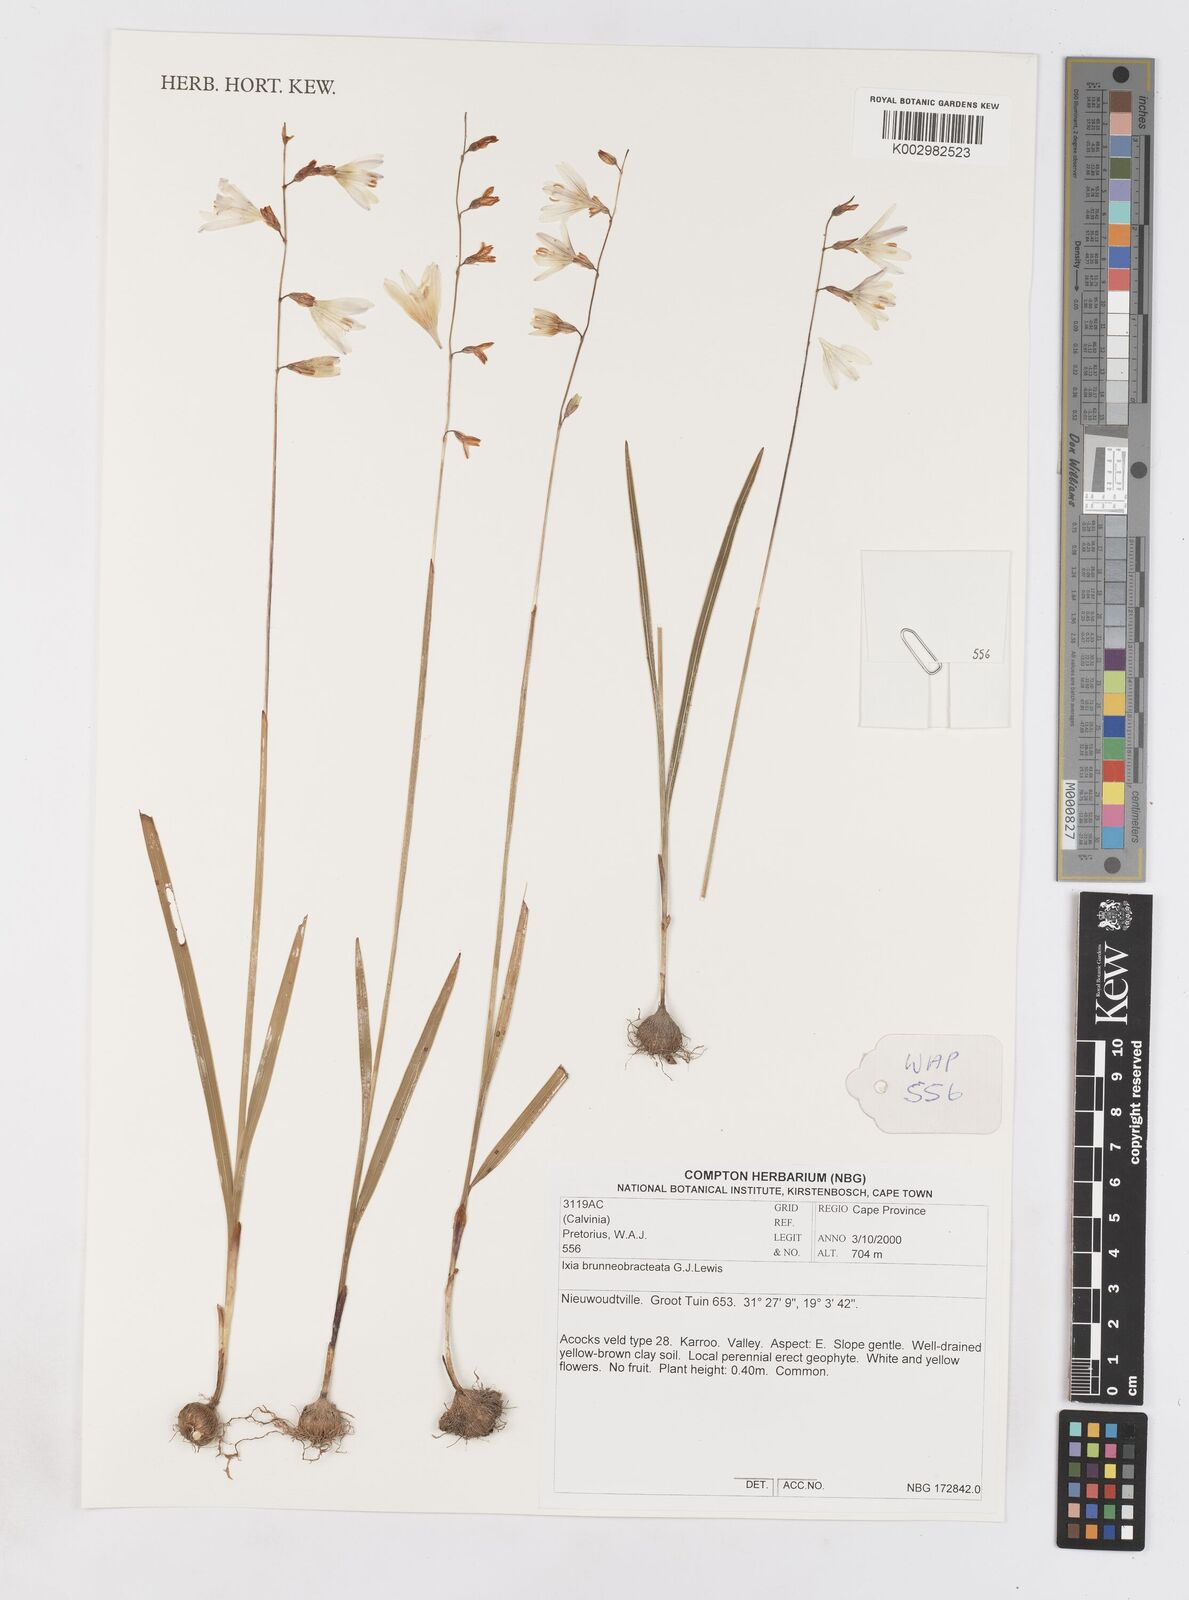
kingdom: Plantae
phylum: Tracheophyta
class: Liliopsida
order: Asparagales
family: Iridaceae
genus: Ixia
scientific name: Ixia brunneobractea
